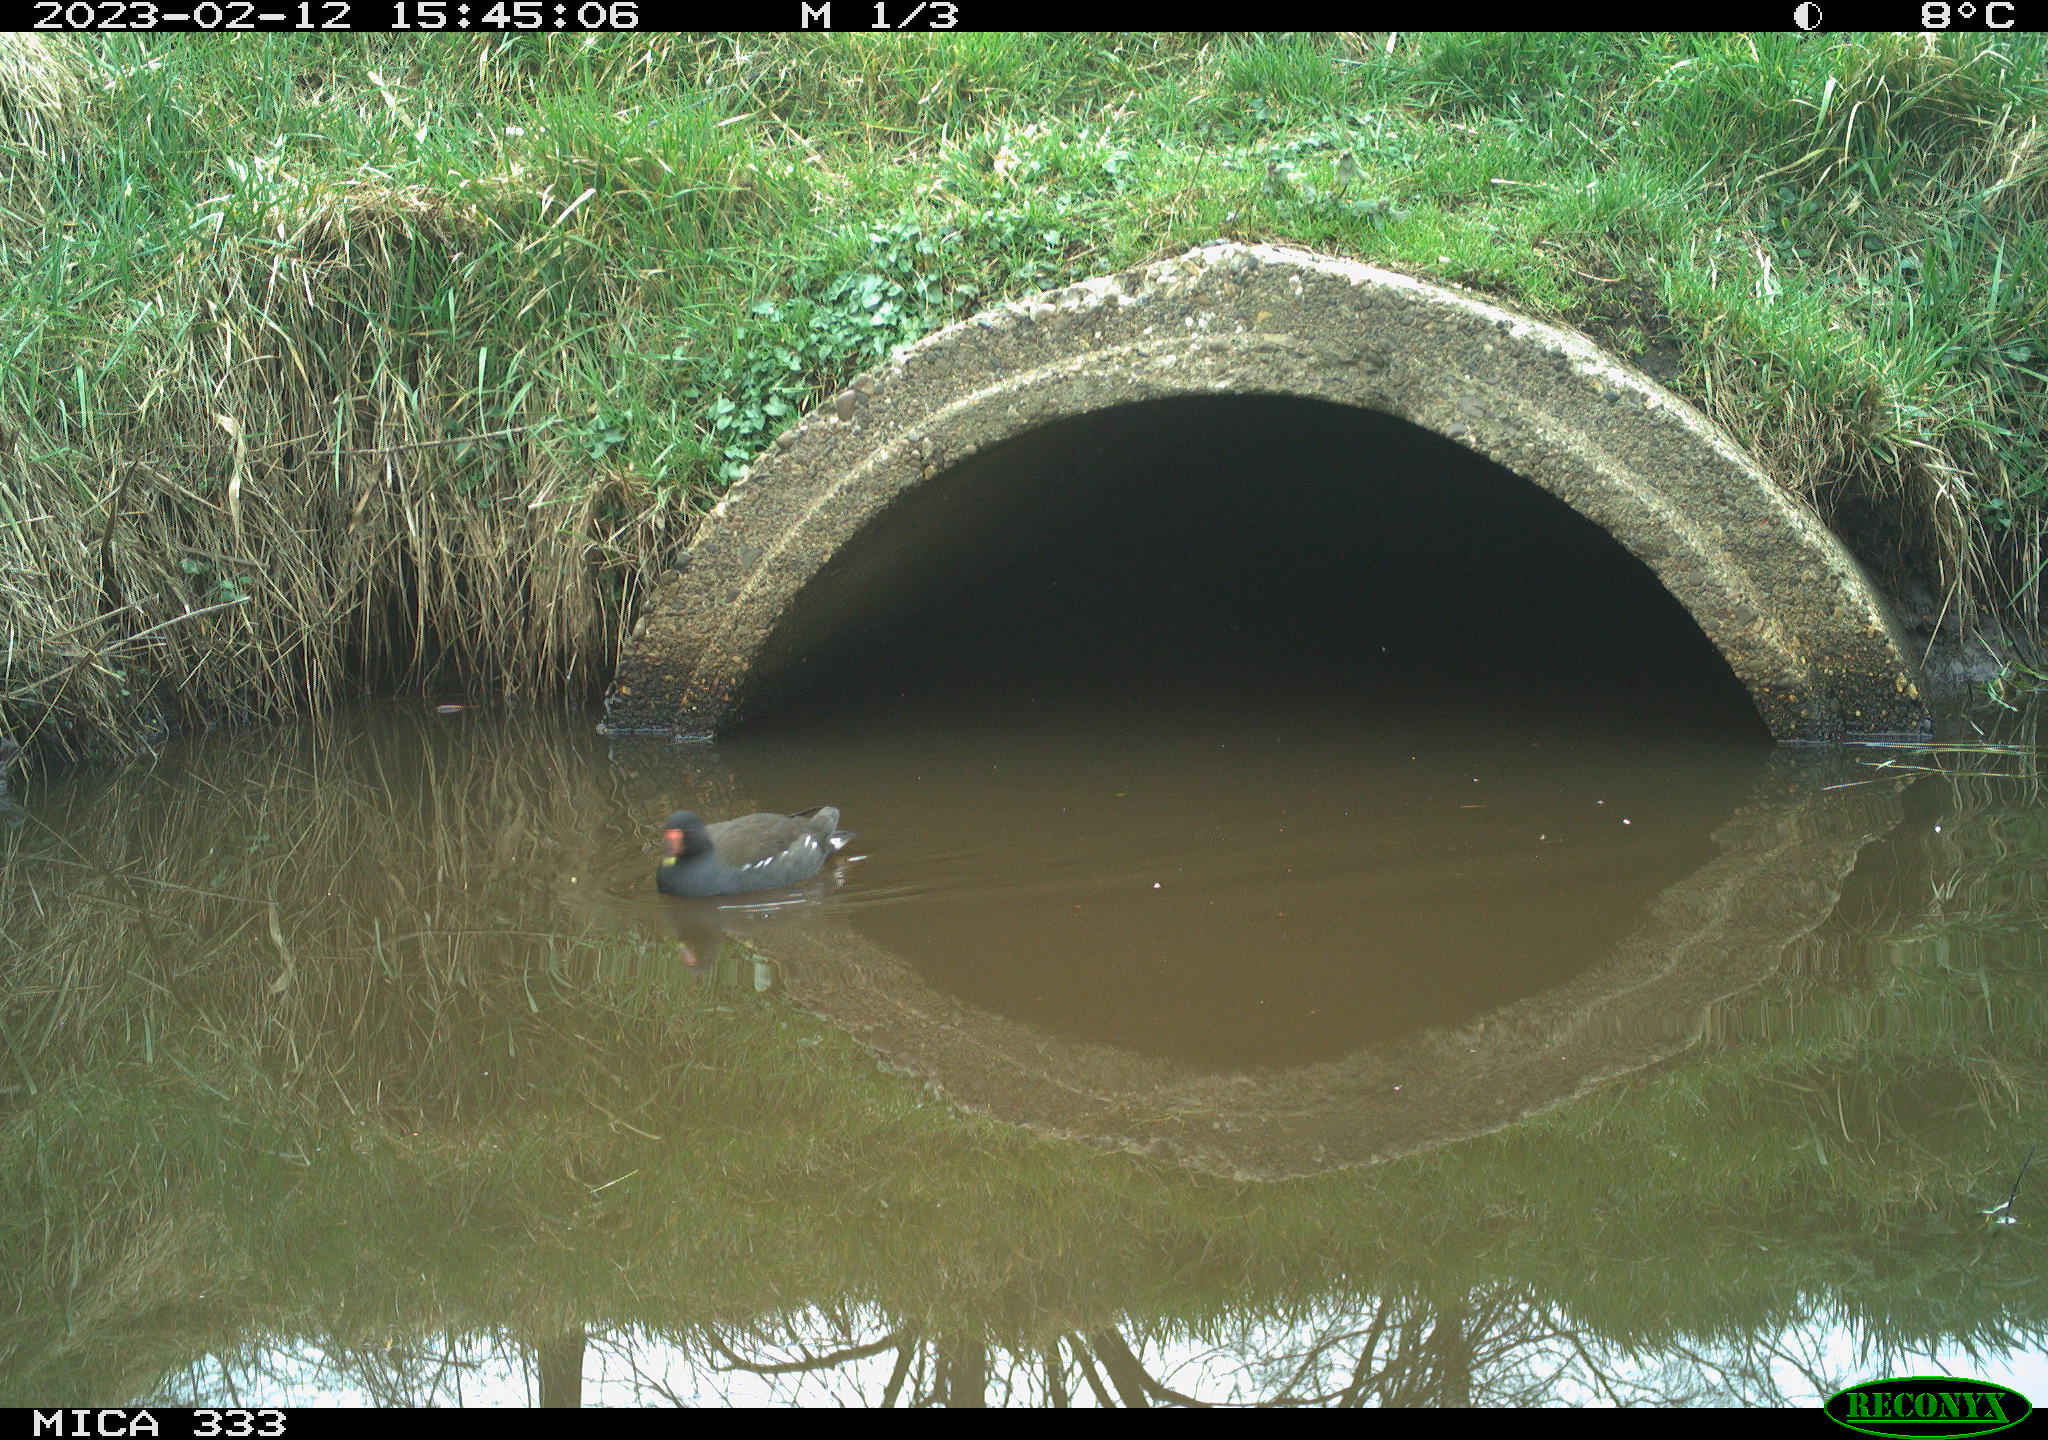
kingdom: Animalia
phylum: Chordata
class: Aves
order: Gruiformes
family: Rallidae
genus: Gallinula
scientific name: Gallinula chloropus
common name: Common moorhen
